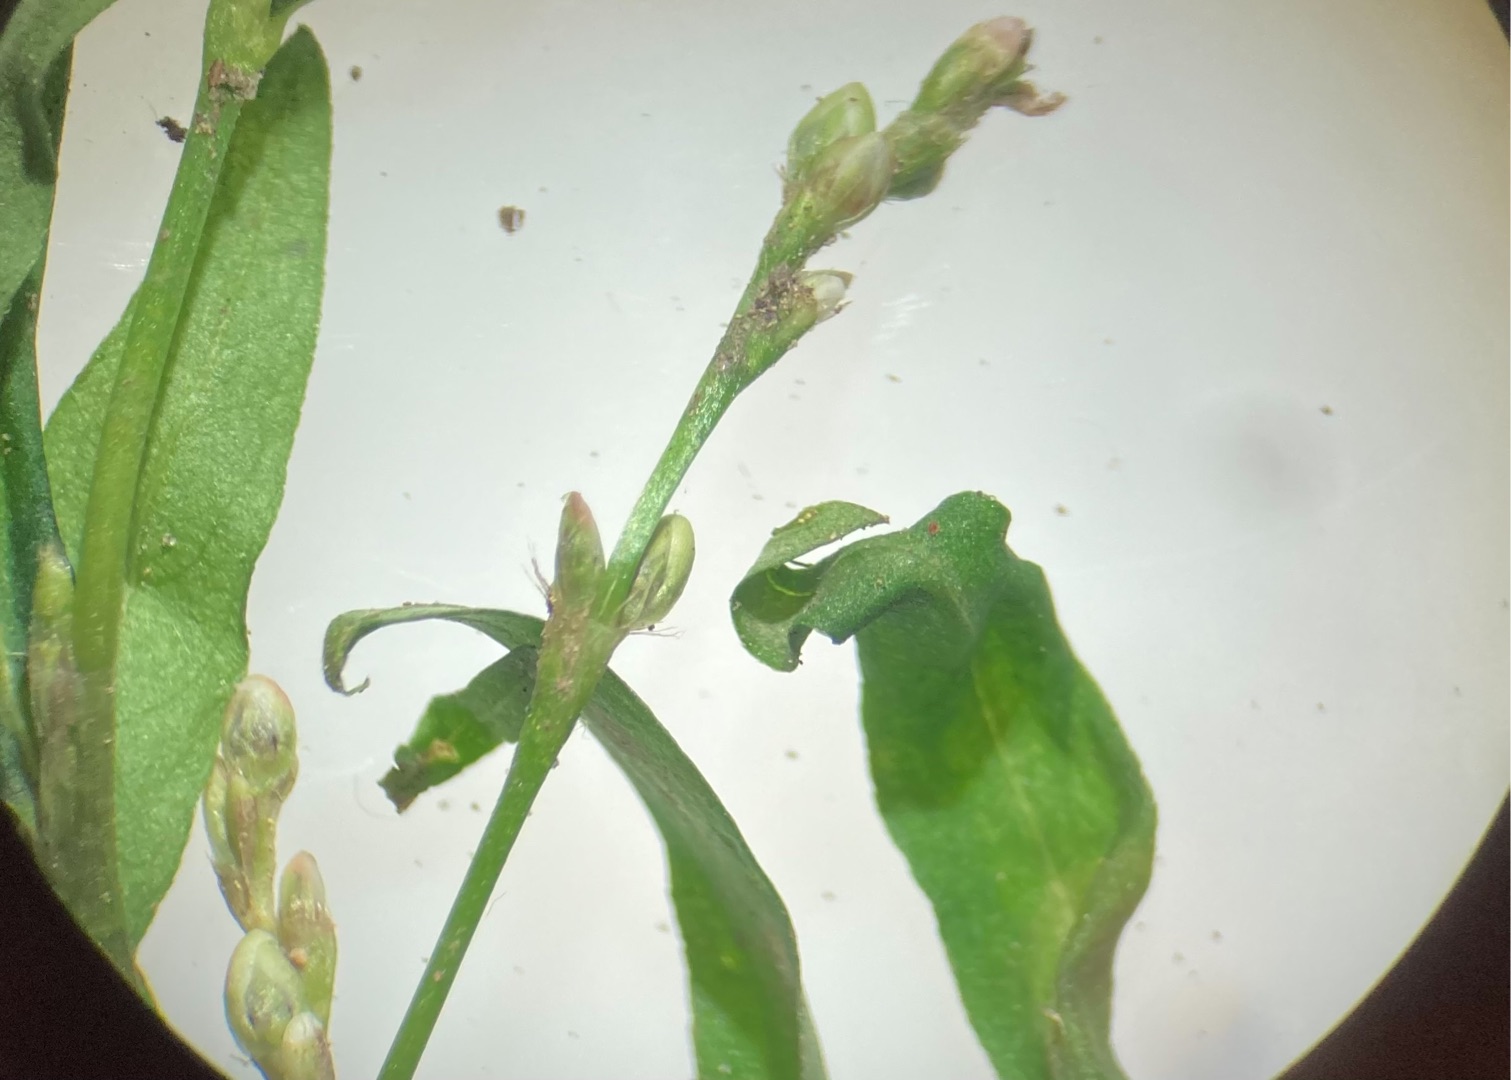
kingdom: Plantae
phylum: Tracheophyta
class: Magnoliopsida
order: Caryophyllales
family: Polygonaceae
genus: Persicaria
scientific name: Persicaria minor
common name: Liden pileurt
